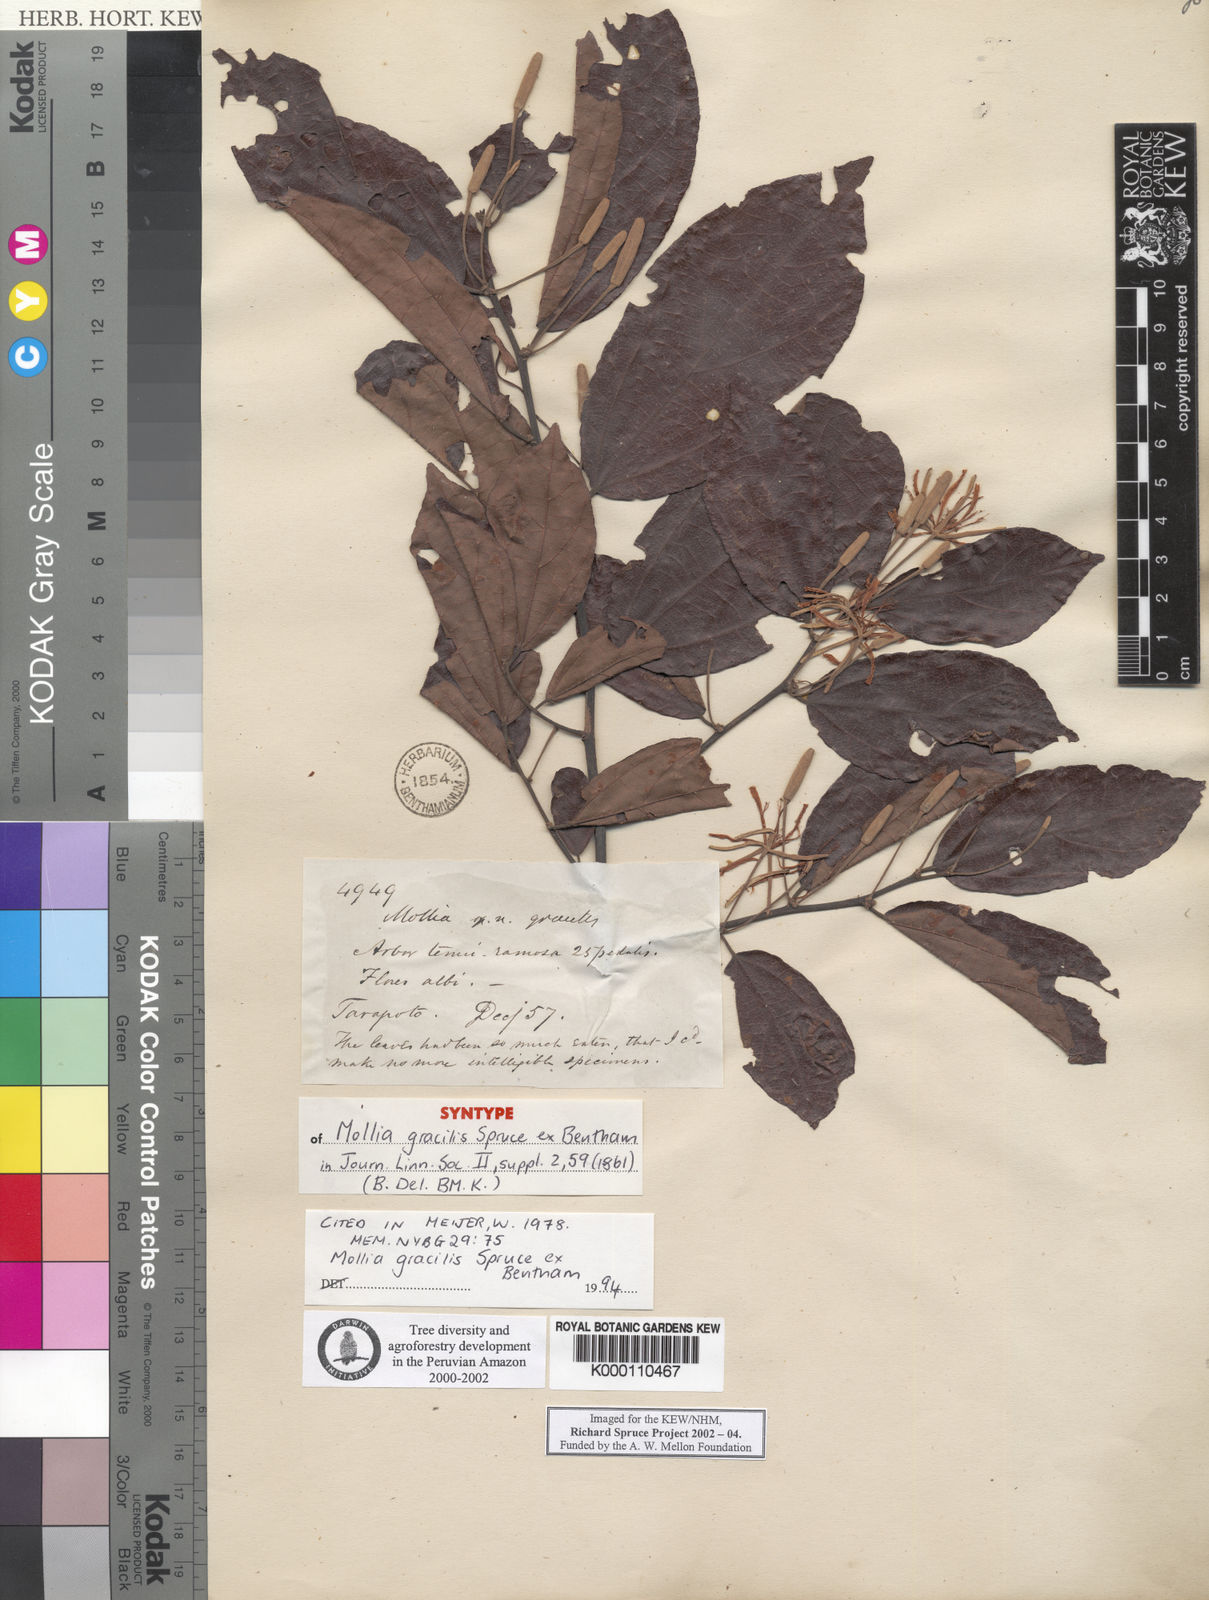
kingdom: Plantae
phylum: Tracheophyta
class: Magnoliopsida
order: Malvales
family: Malvaceae
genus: Mollia
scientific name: Mollia gracilis
